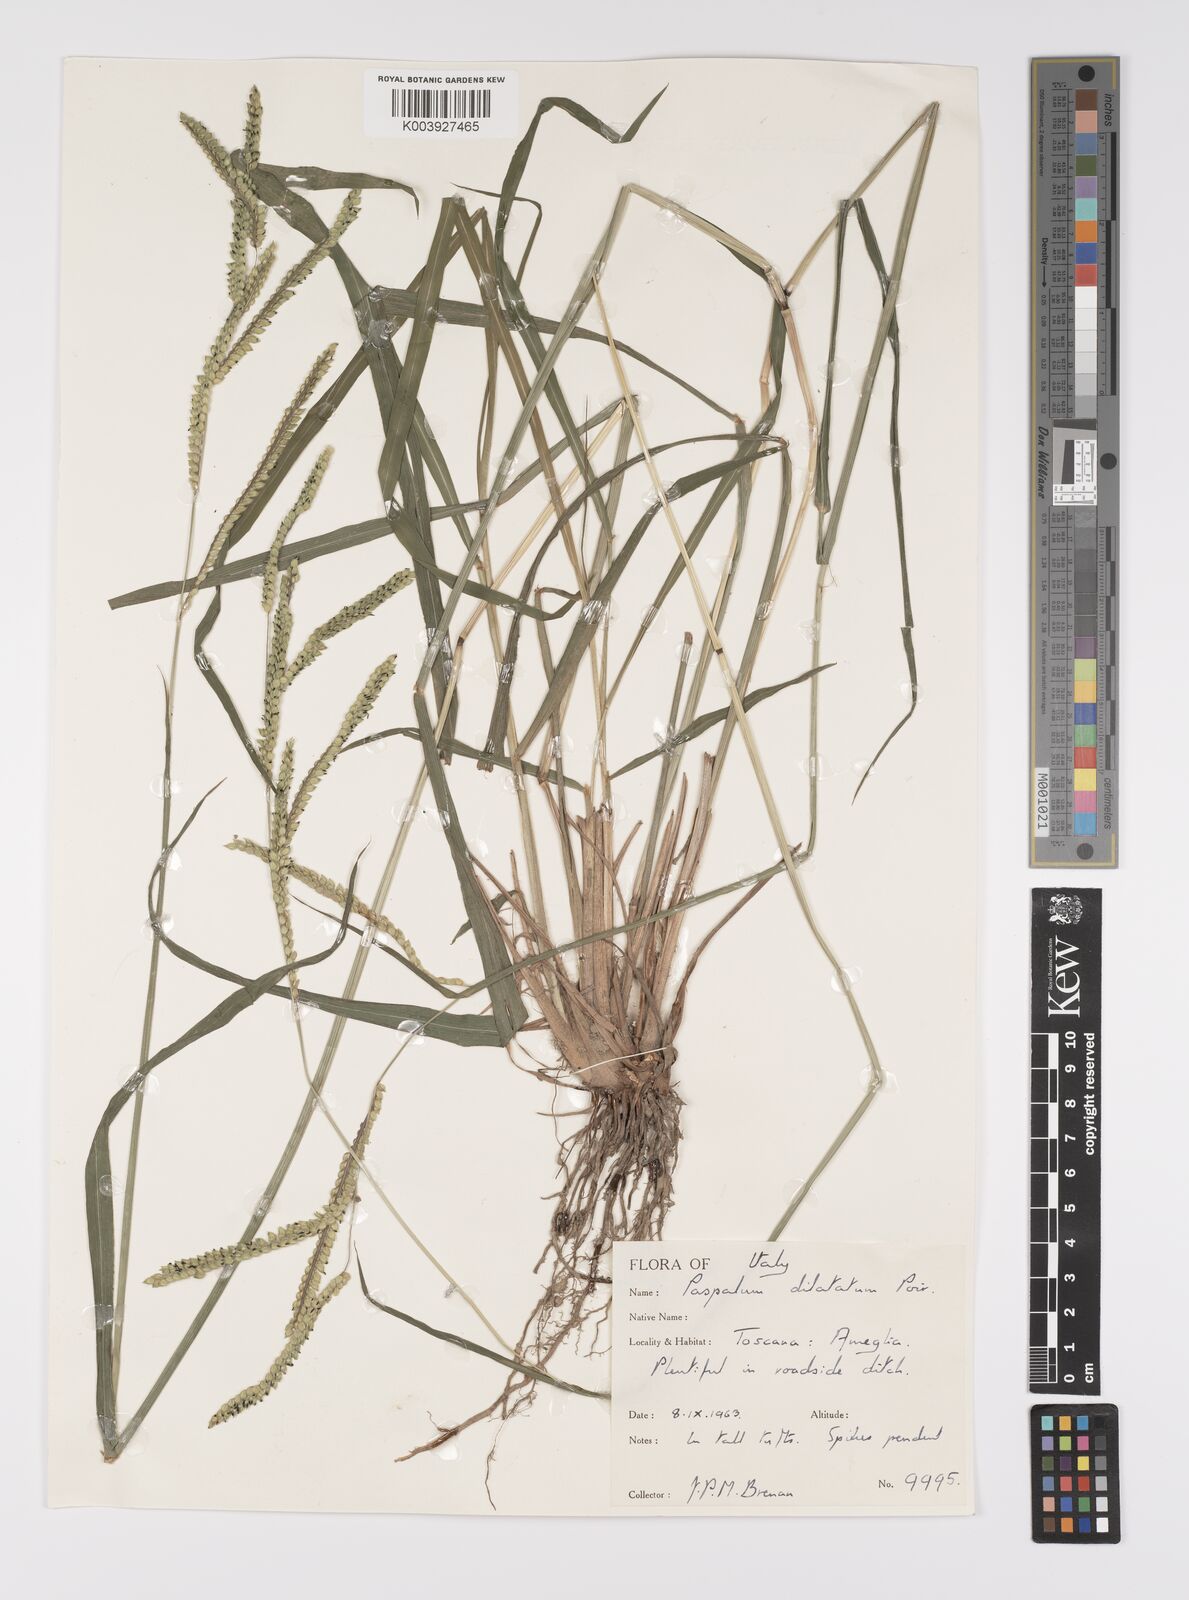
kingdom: Plantae
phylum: Tracheophyta
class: Liliopsida
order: Poales
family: Poaceae
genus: Paspalum
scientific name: Paspalum dilatatum
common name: Dallisgrass
